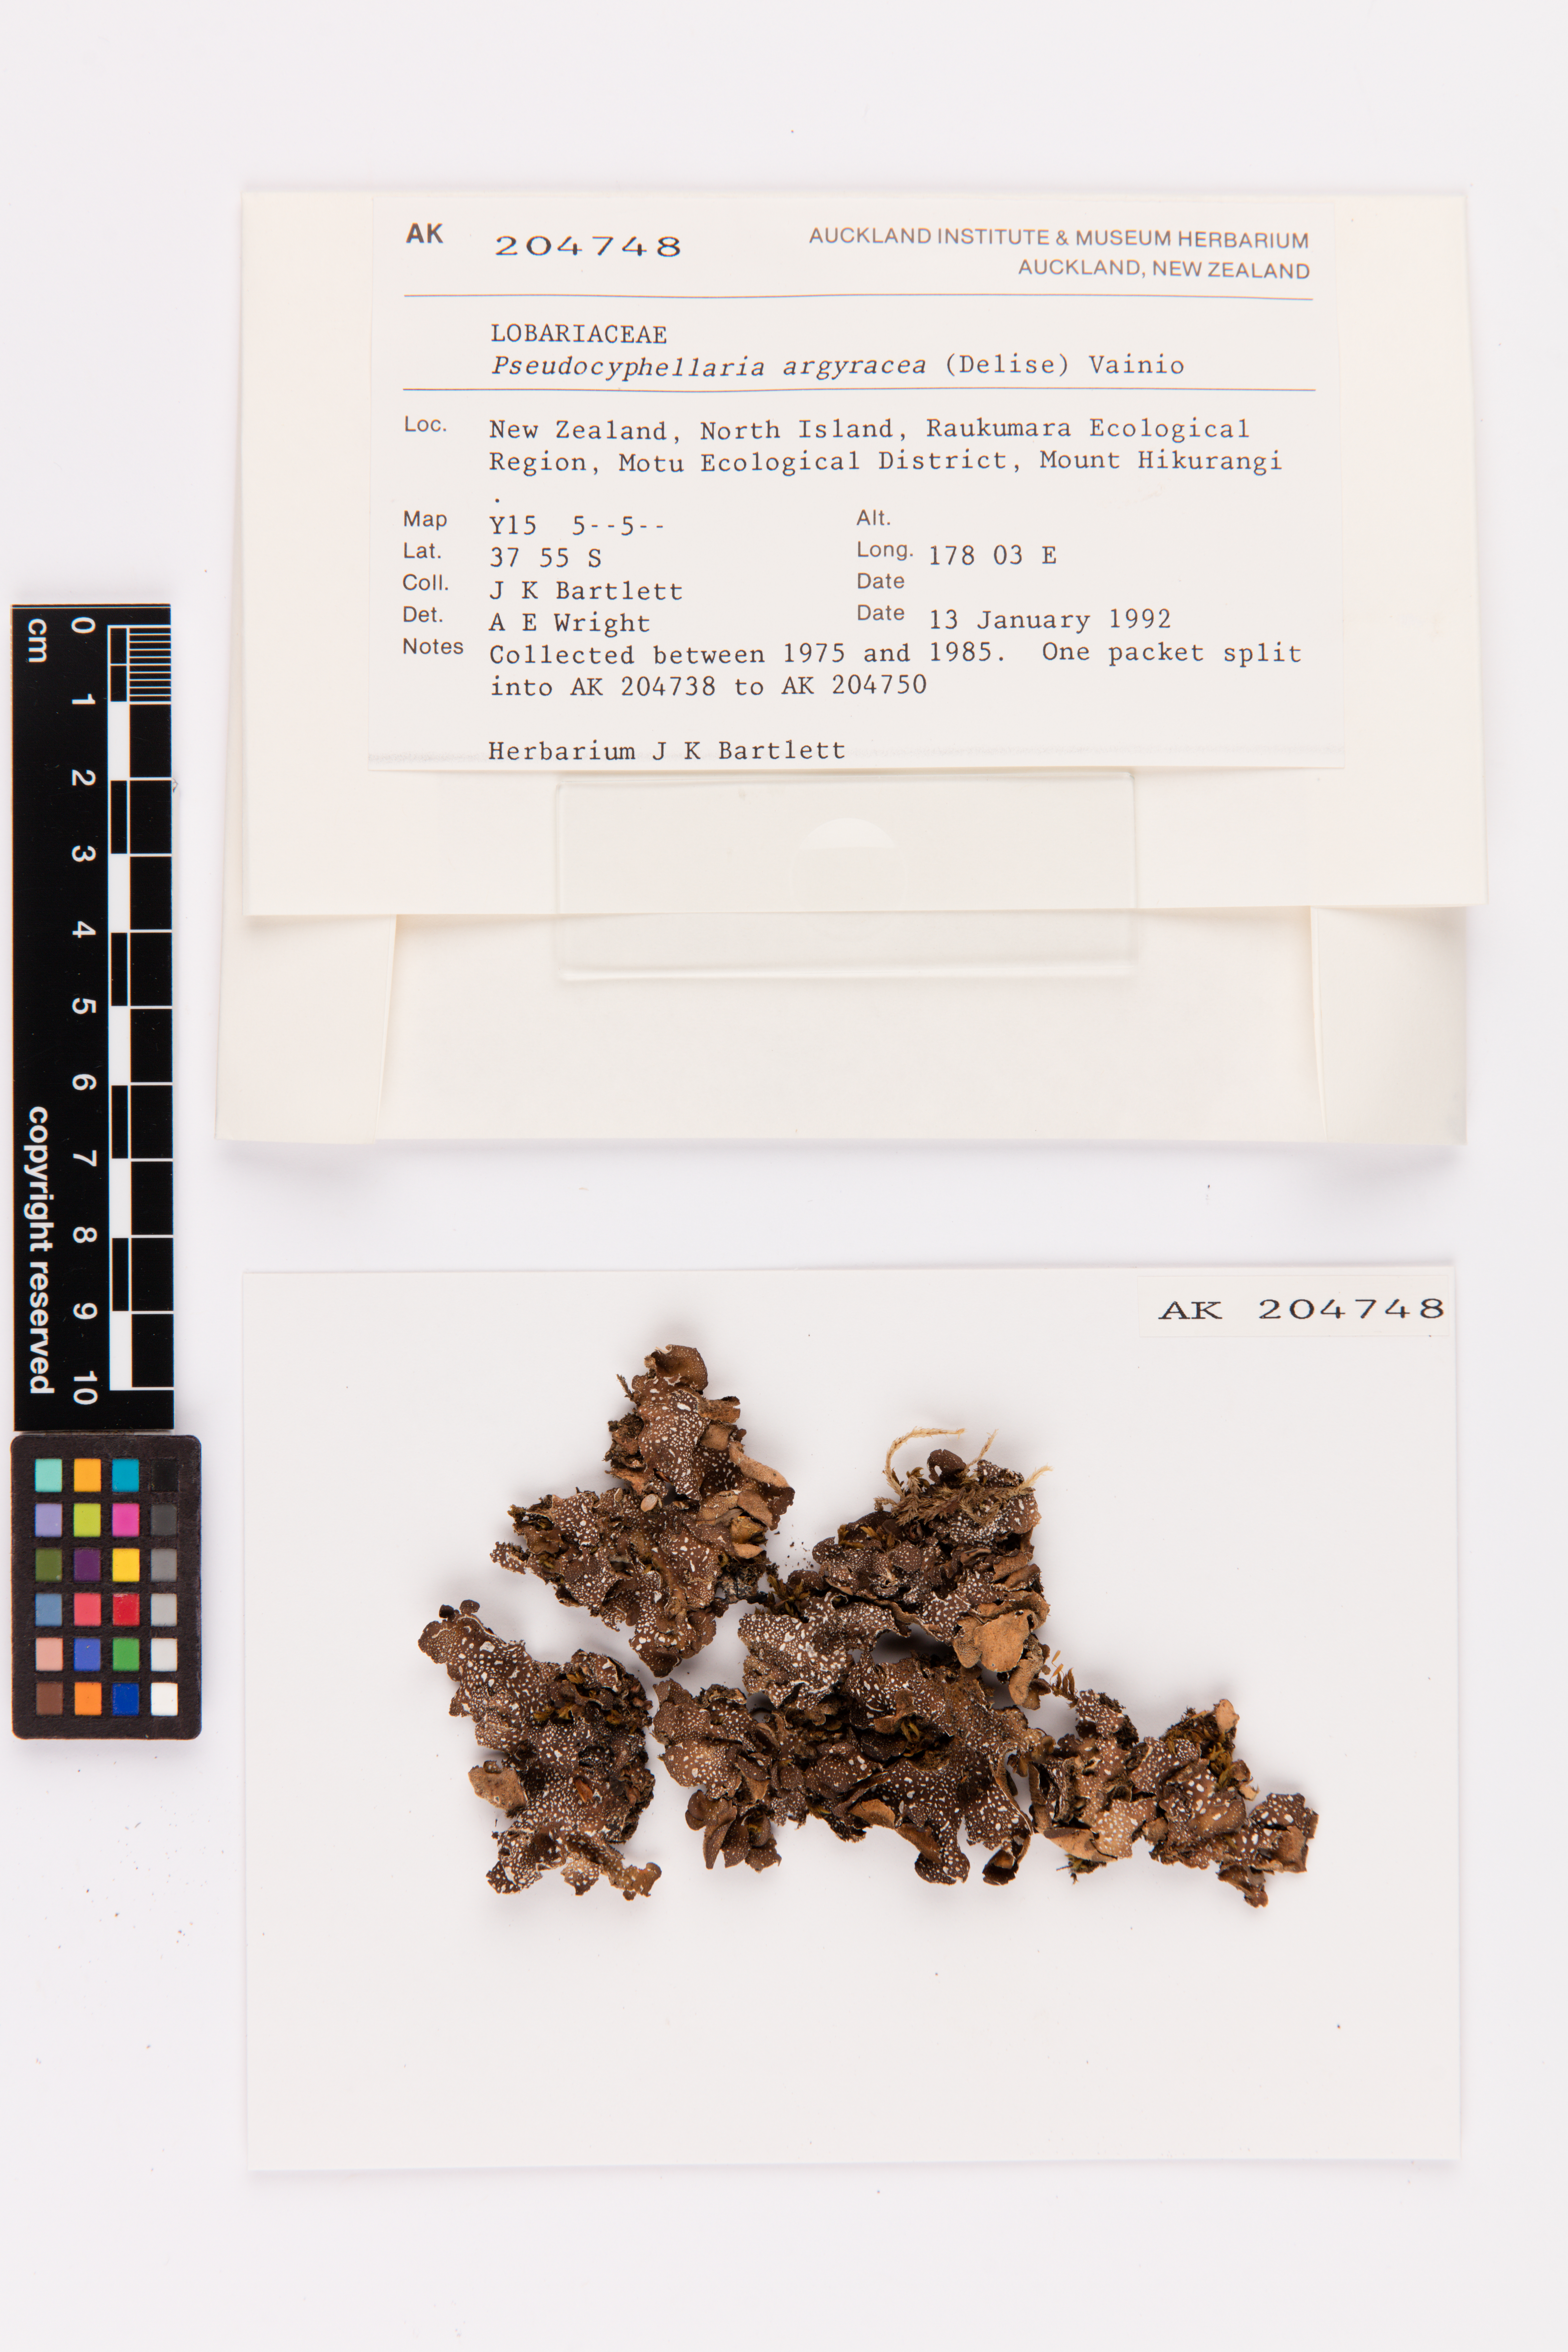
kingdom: Fungi
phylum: Ascomycota
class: Lecanoromycetes
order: Peltigerales
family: Lobariaceae
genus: Pseudocyphellaria
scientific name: Pseudocyphellaria argyracea
